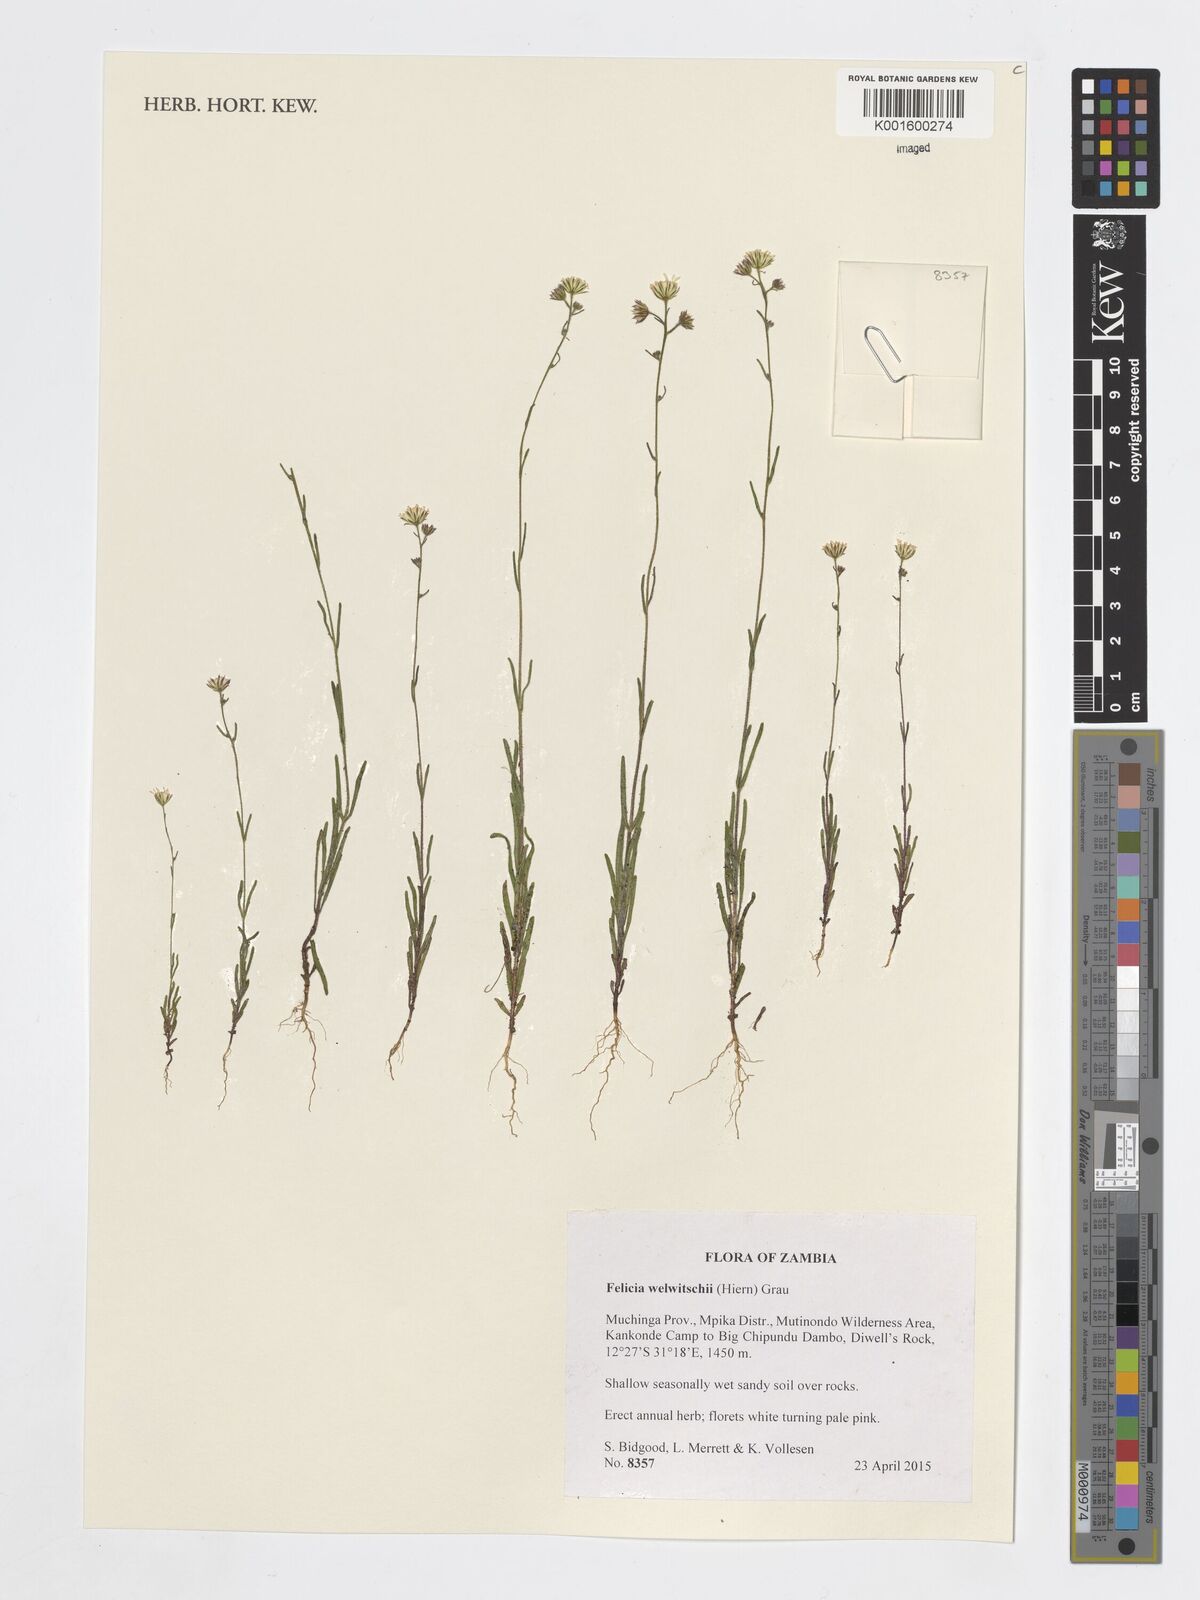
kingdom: Plantae
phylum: Tracheophyta
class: Magnoliopsida
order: Asterales
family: Asteraceae
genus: Felicia
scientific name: Felicia welwitschii
